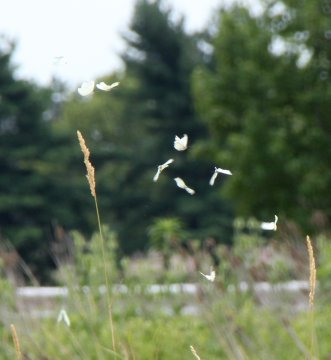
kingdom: Animalia
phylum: Arthropoda
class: Insecta
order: Lepidoptera
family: Pieridae
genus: Pieris
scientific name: Pieris rapae
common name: Cabbage White
